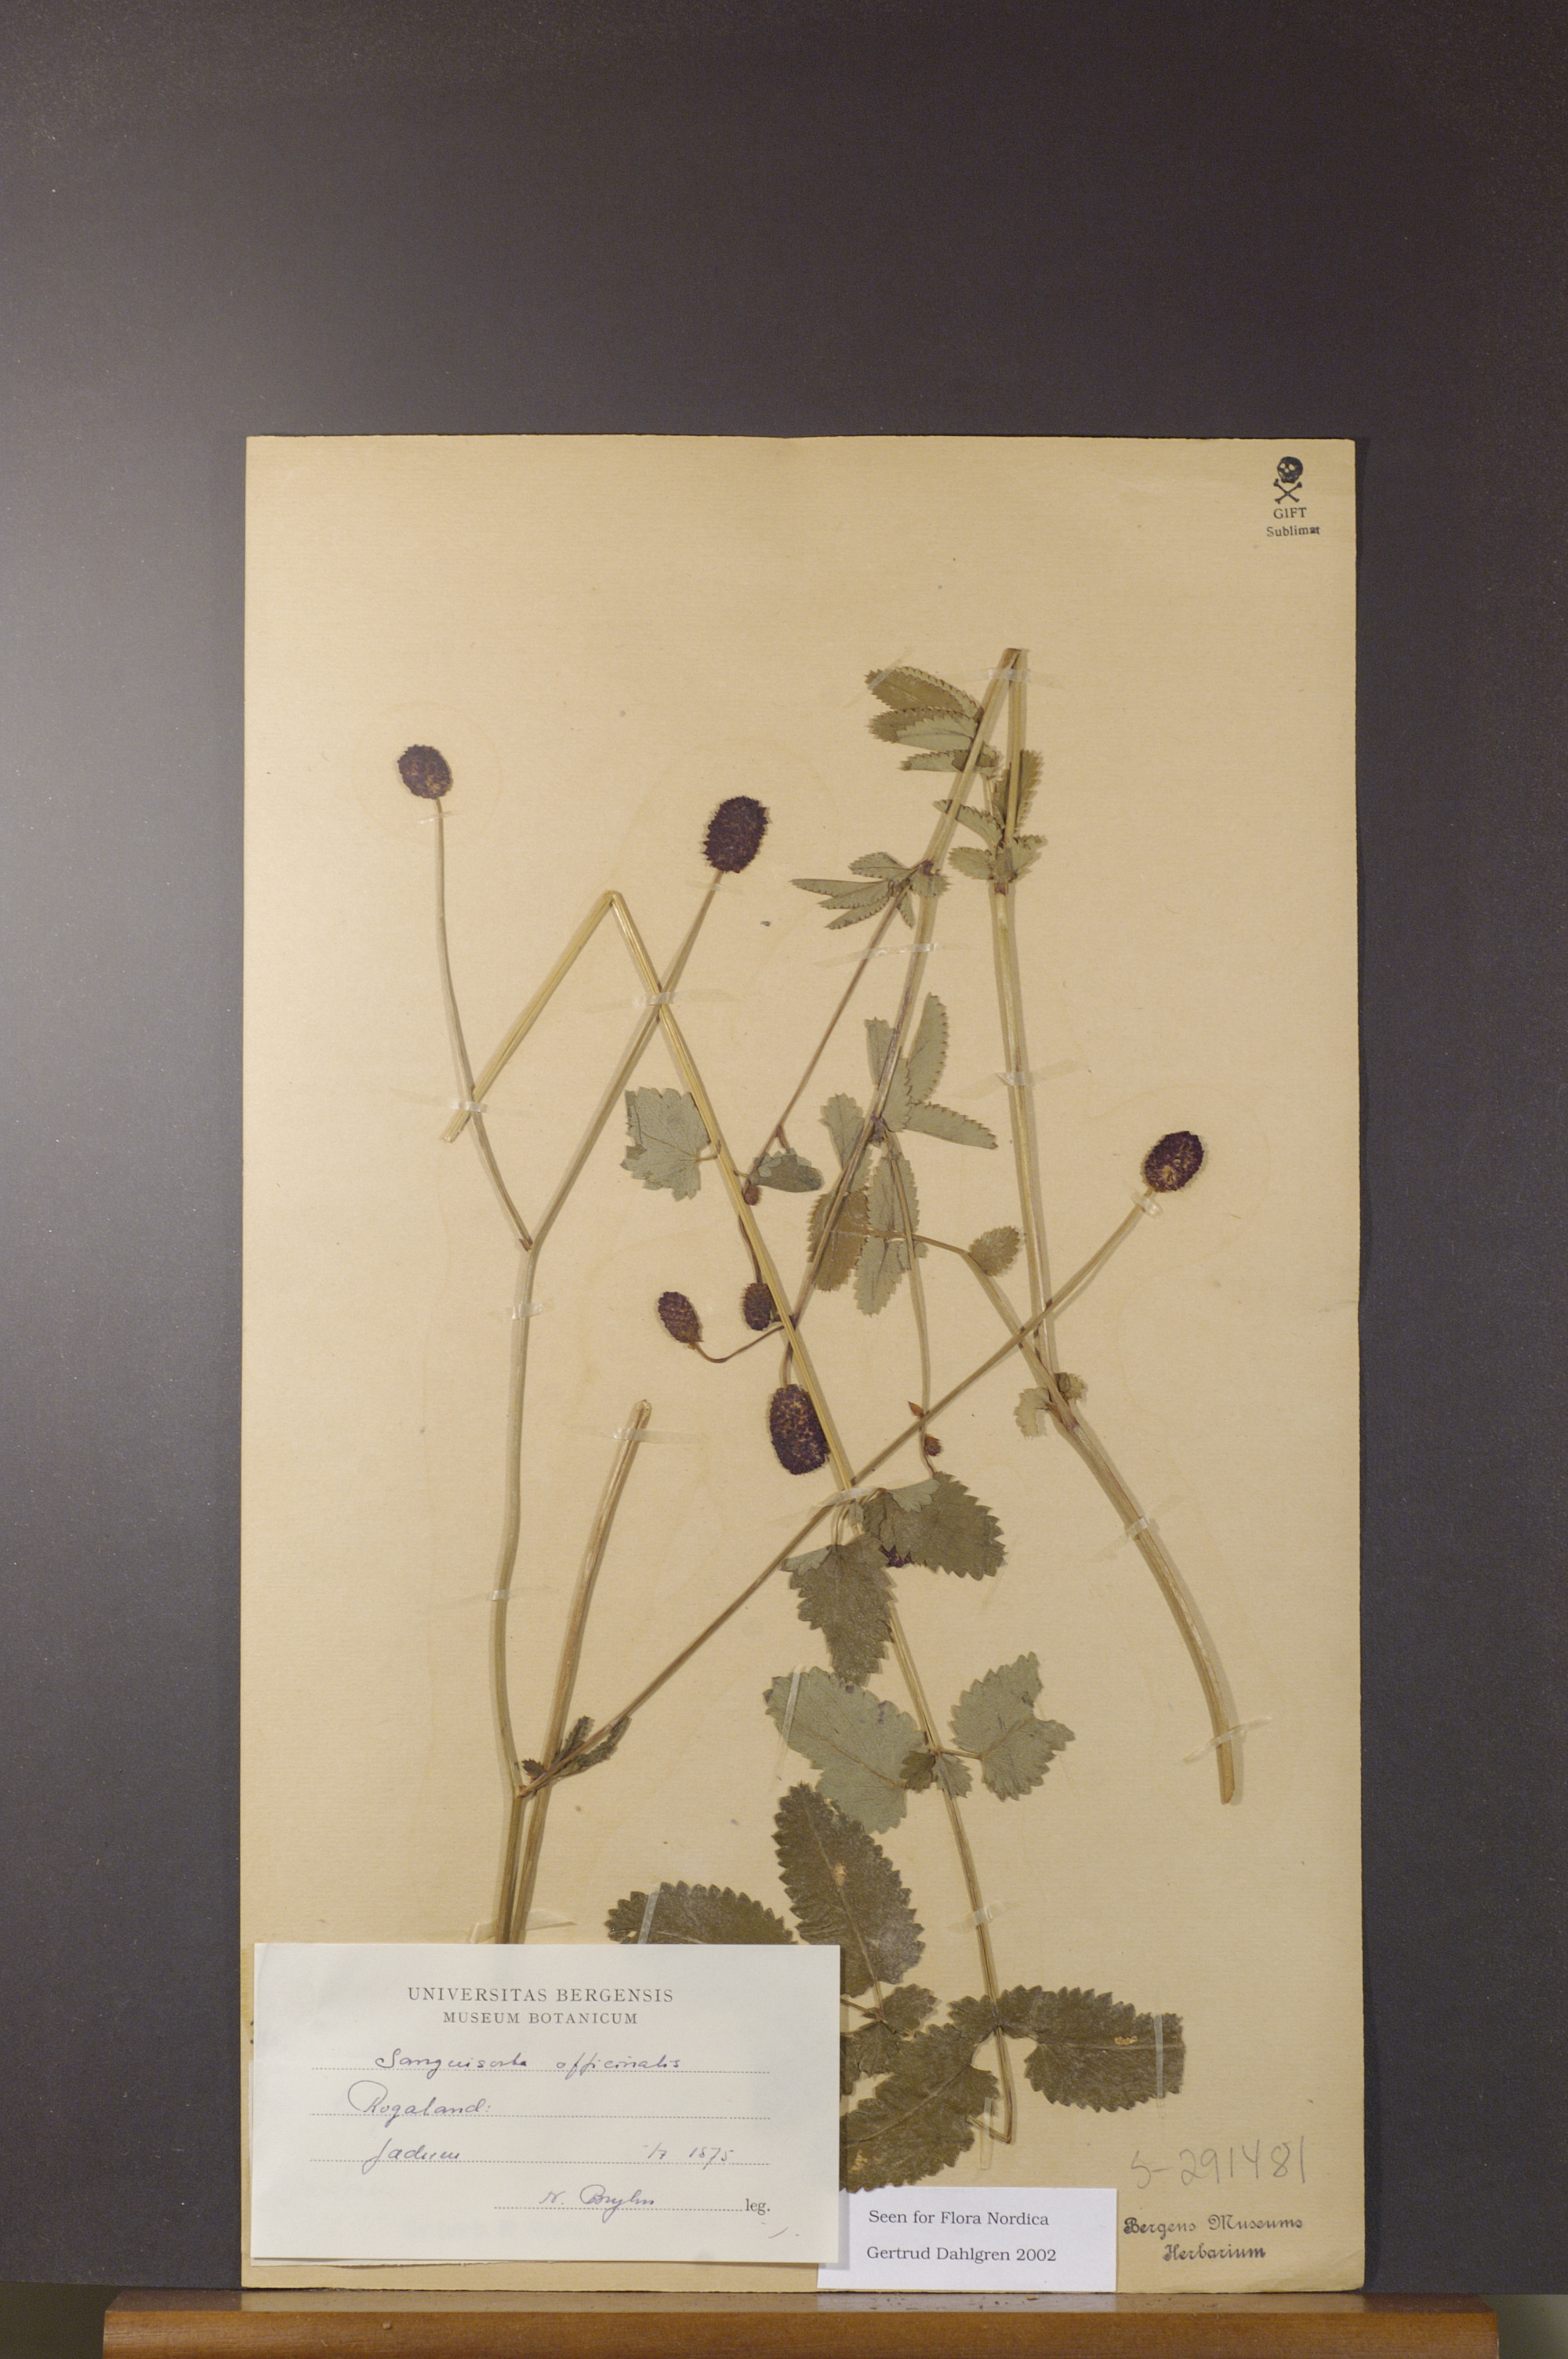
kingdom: Plantae
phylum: Tracheophyta
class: Magnoliopsida
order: Rosales
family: Rosaceae
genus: Sanguisorba
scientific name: Sanguisorba officinalis
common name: Great burnet
